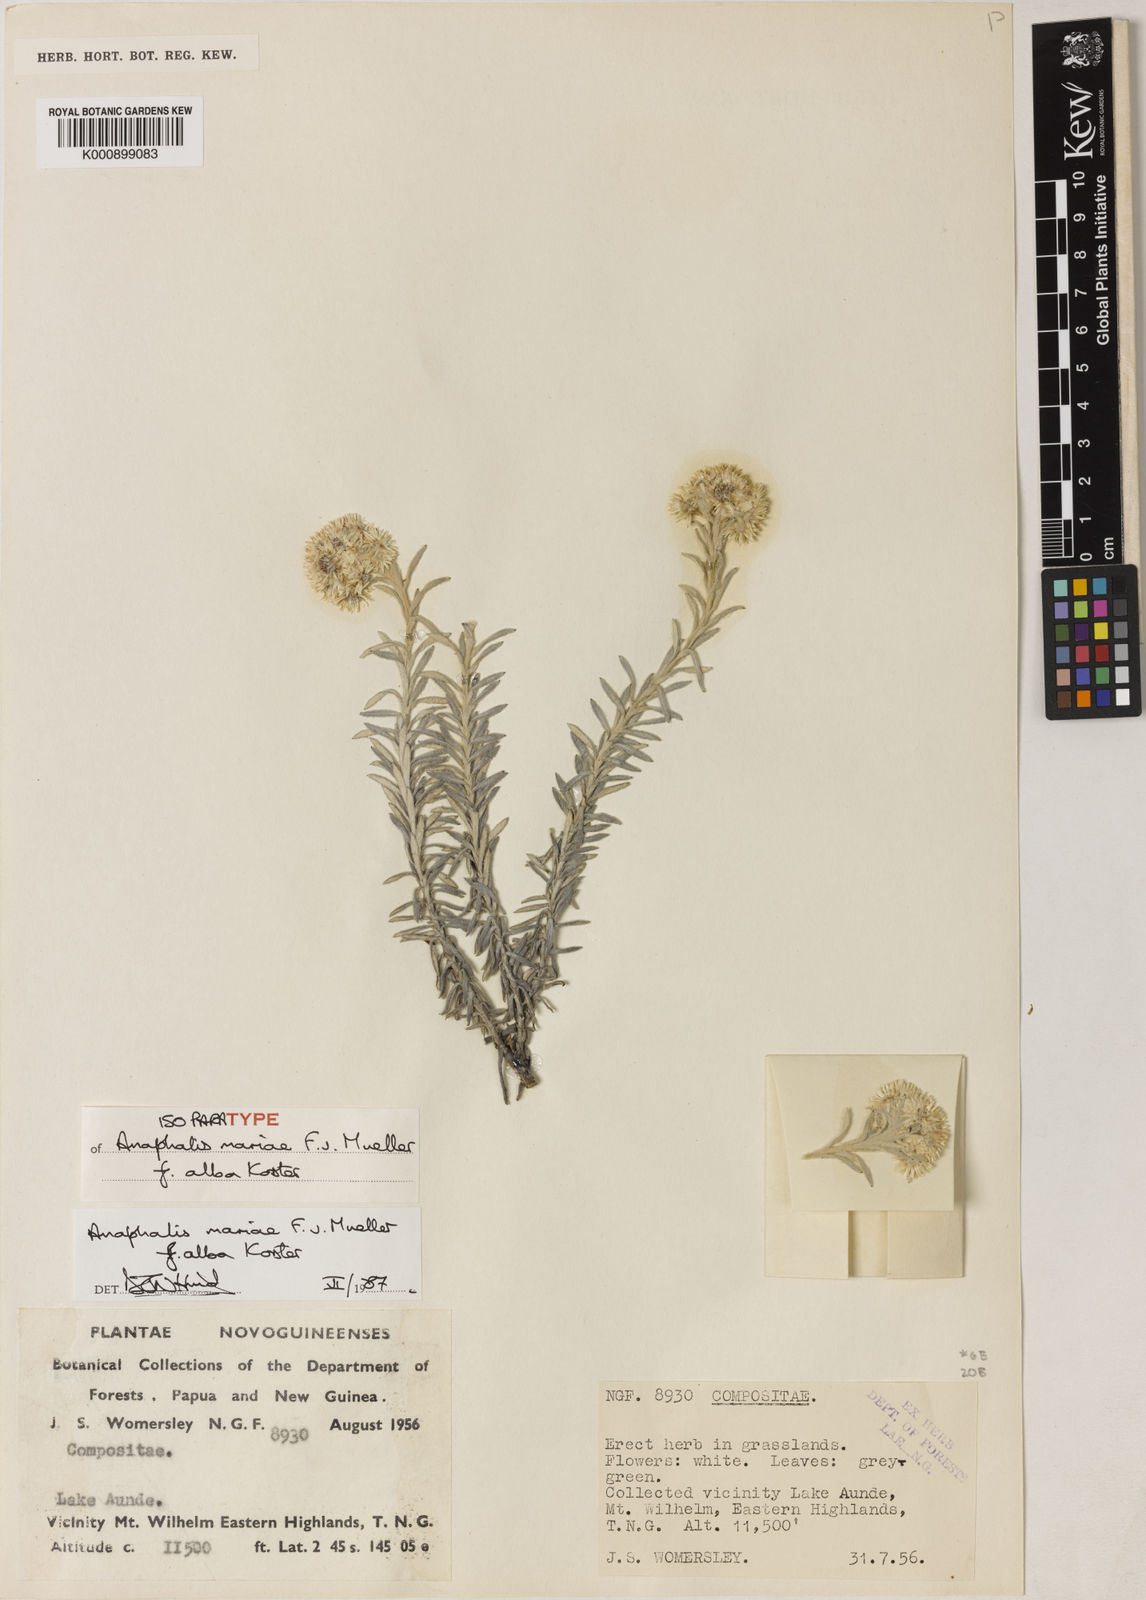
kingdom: Plantae
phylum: Tracheophyta
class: Magnoliopsida
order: Asterales
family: Asteraceae
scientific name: Asteraceae
